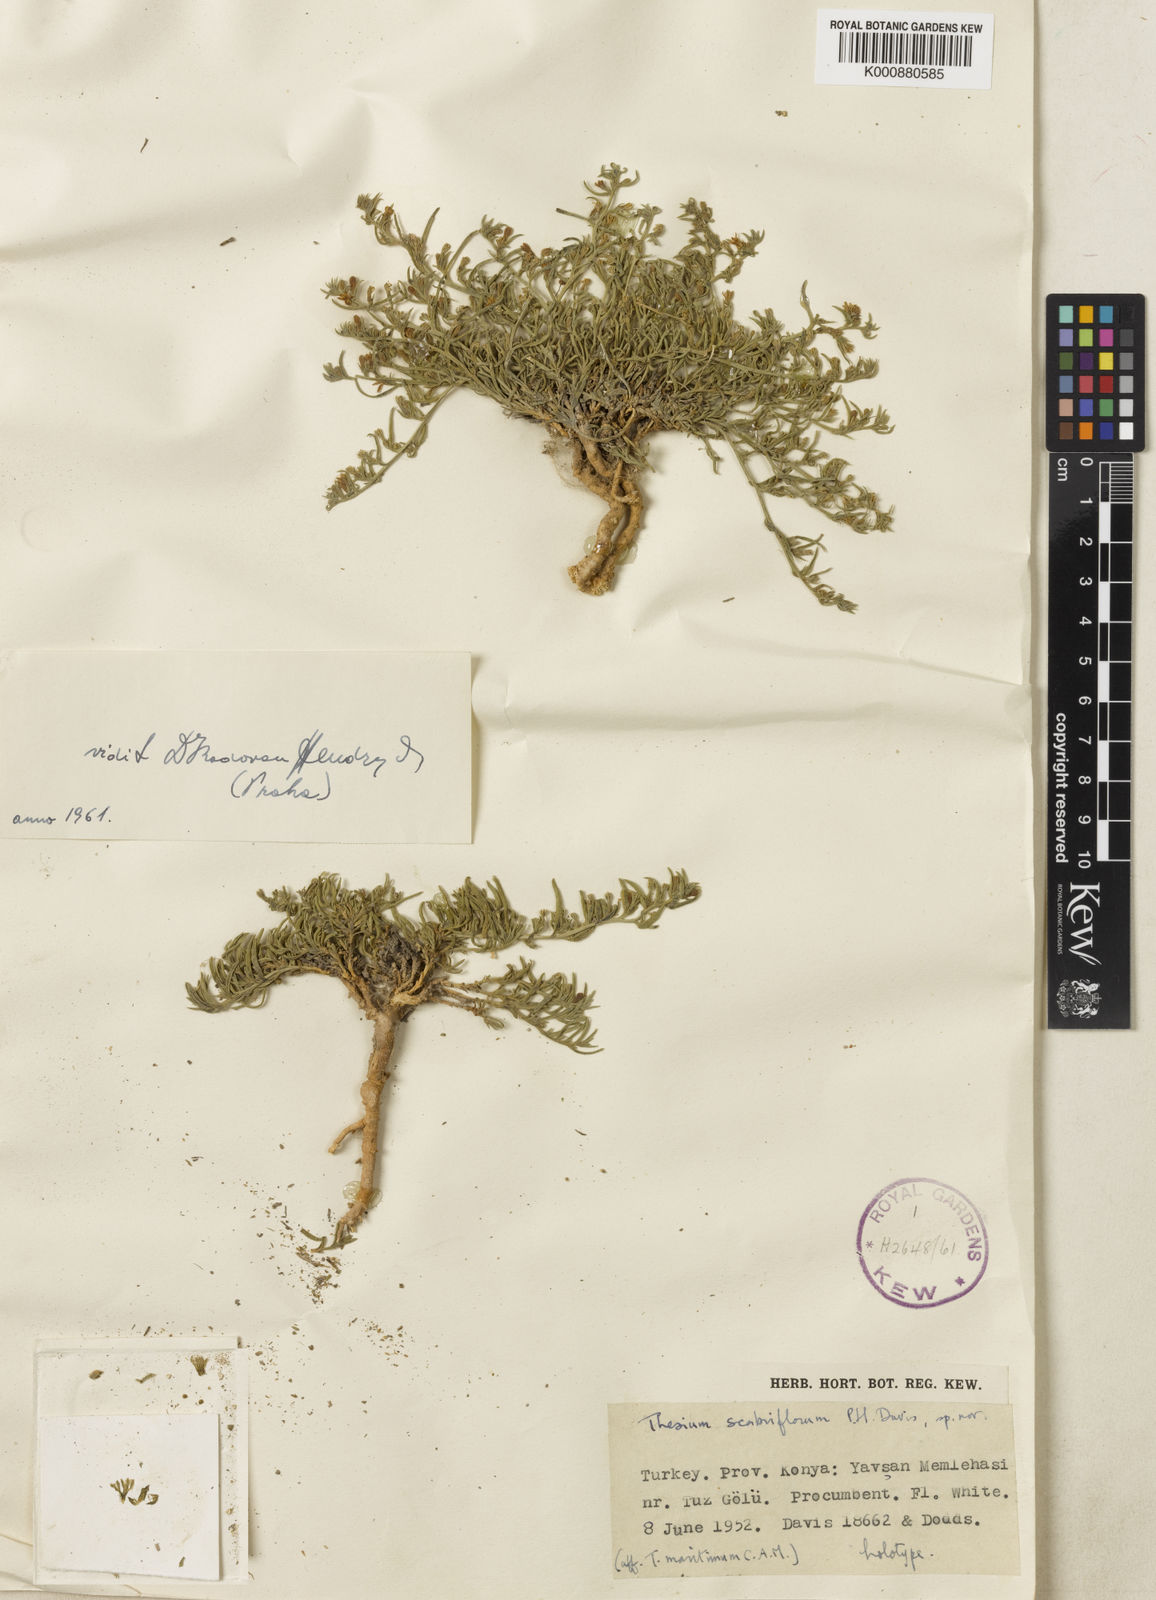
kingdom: Plantae
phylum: Tracheophyta
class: Magnoliopsida
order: Santalales
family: Thesiaceae
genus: Thesium
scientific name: Thesium scabriflorum
